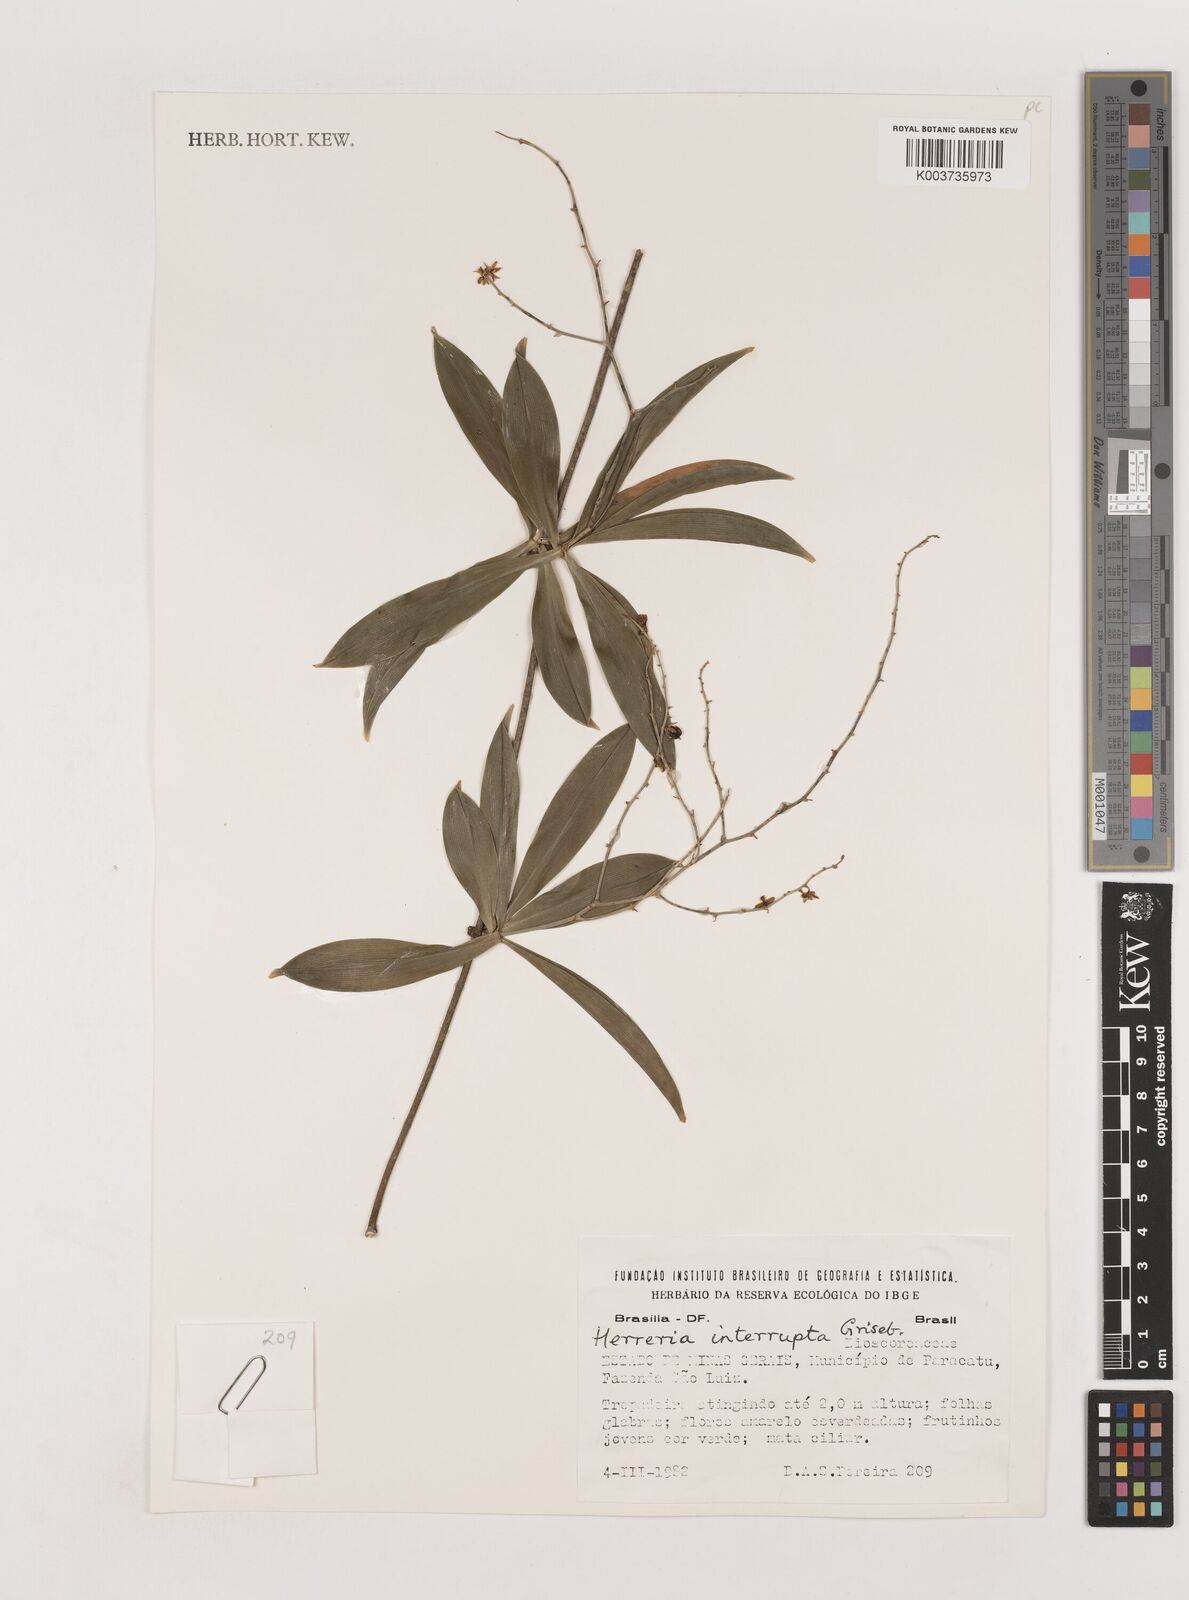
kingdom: Plantae
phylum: Tracheophyta
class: Liliopsida
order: Asparagales
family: Asparagaceae
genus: Herreria
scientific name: Herreria salsaparilha
